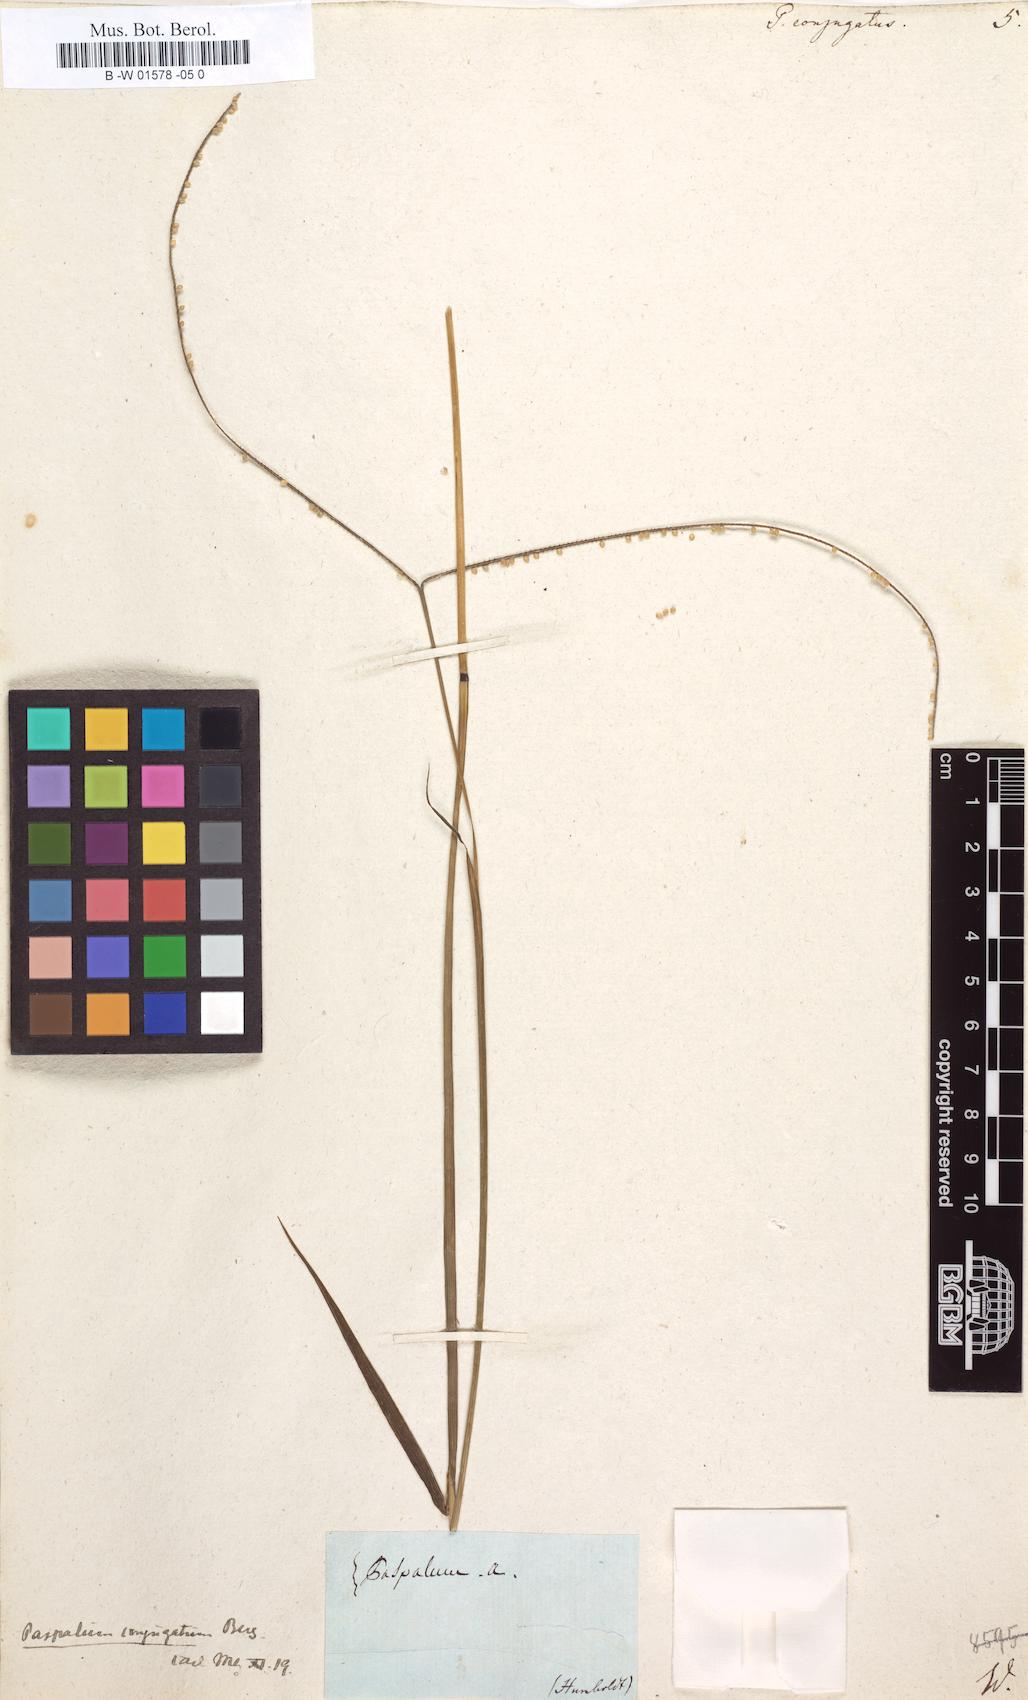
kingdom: Plantae
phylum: Tracheophyta
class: Liliopsida
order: Poales
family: Poaceae
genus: Paspalum
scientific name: Paspalum conjugatum
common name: Hilograss
